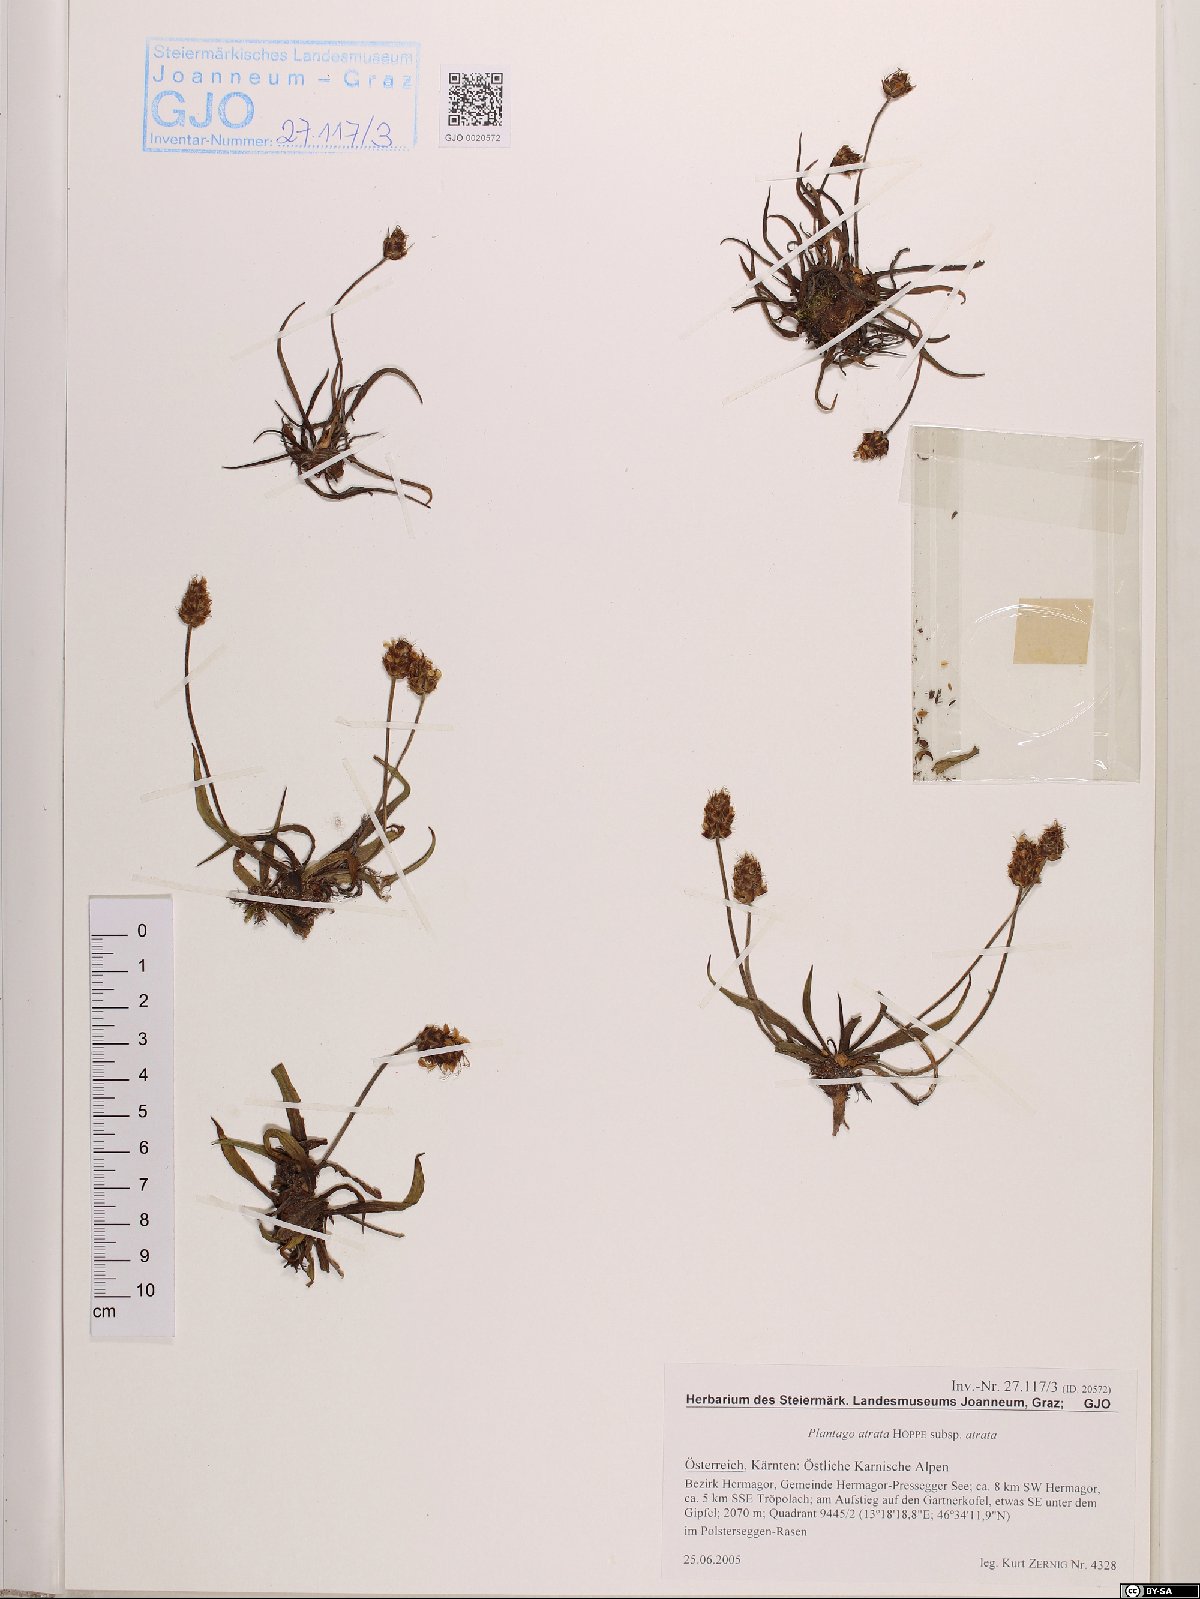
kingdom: Plantae
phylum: Tracheophyta
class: Magnoliopsida
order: Lamiales
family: Plantaginaceae
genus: Plantago
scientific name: Plantago atrata
